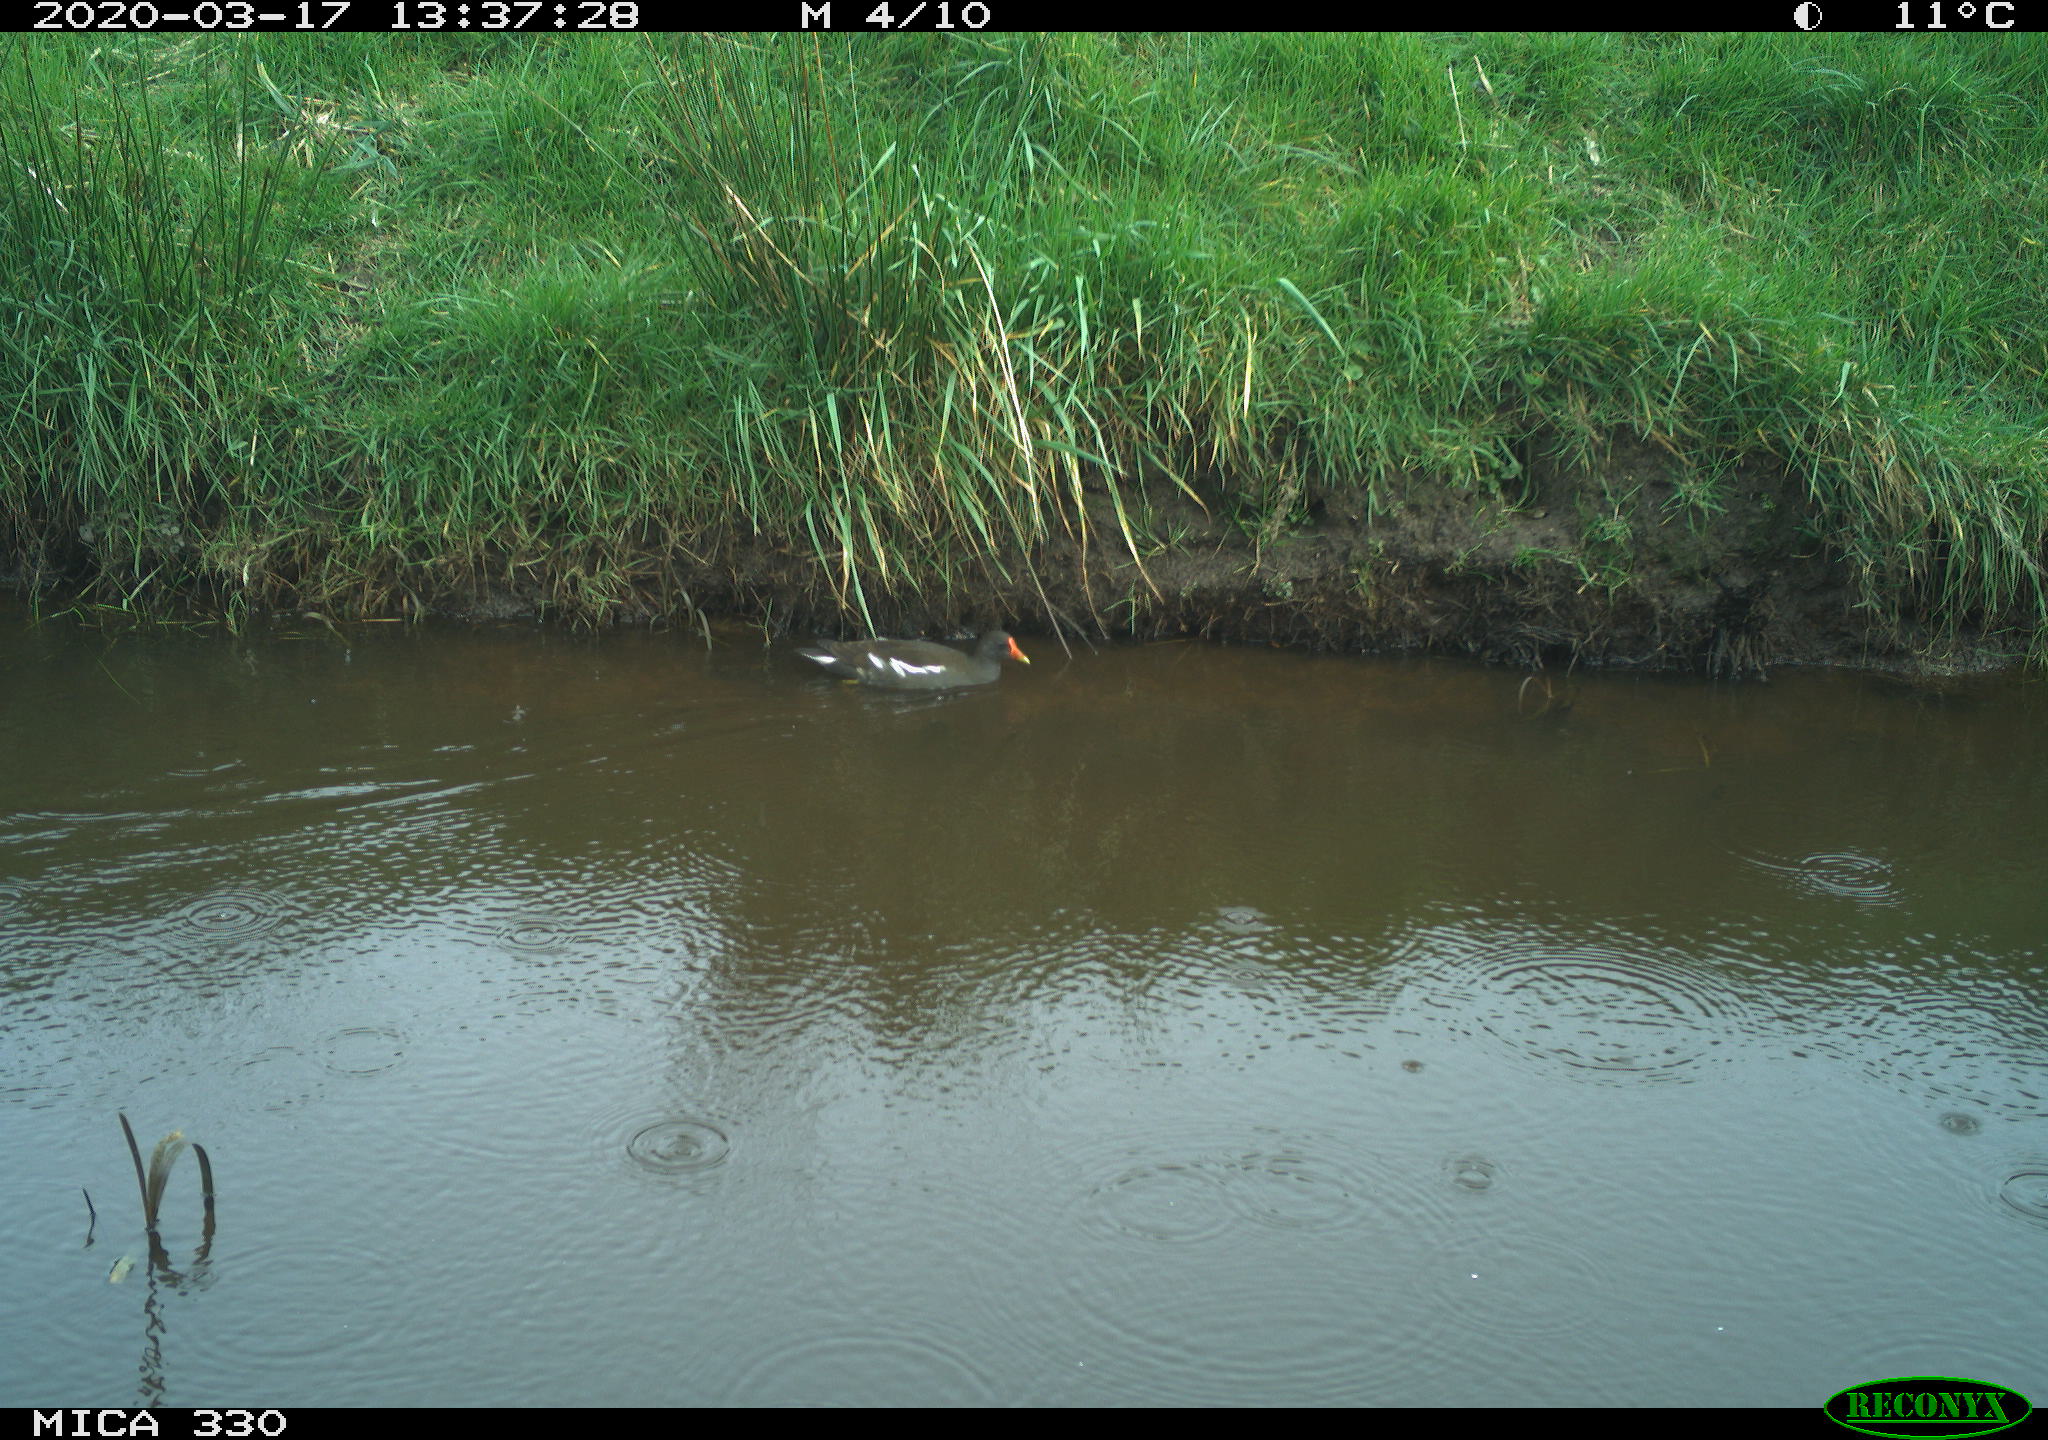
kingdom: Animalia
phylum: Chordata
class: Aves
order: Gruiformes
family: Rallidae
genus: Gallinula
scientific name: Gallinula chloropus
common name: Common moorhen
